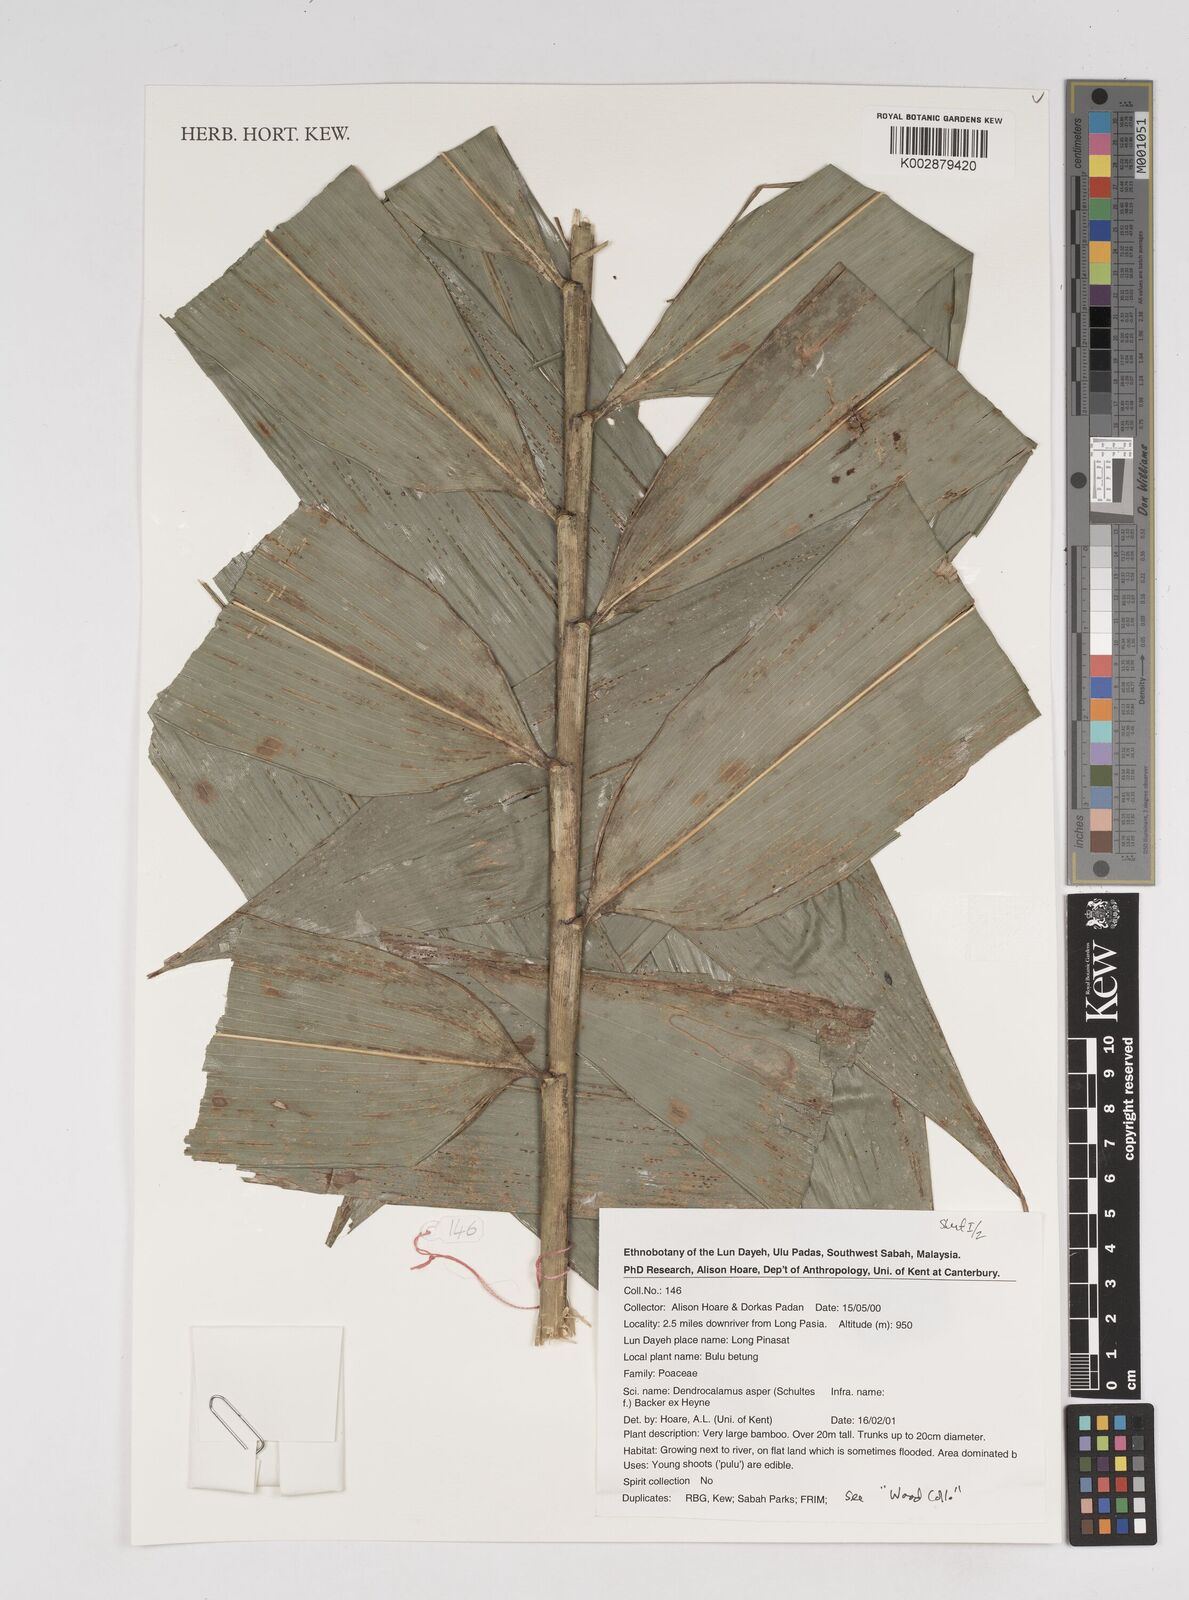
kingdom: Plantae
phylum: Tracheophyta
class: Liliopsida
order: Poales
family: Poaceae
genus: Dendrocalamus
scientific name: Dendrocalamus asper
